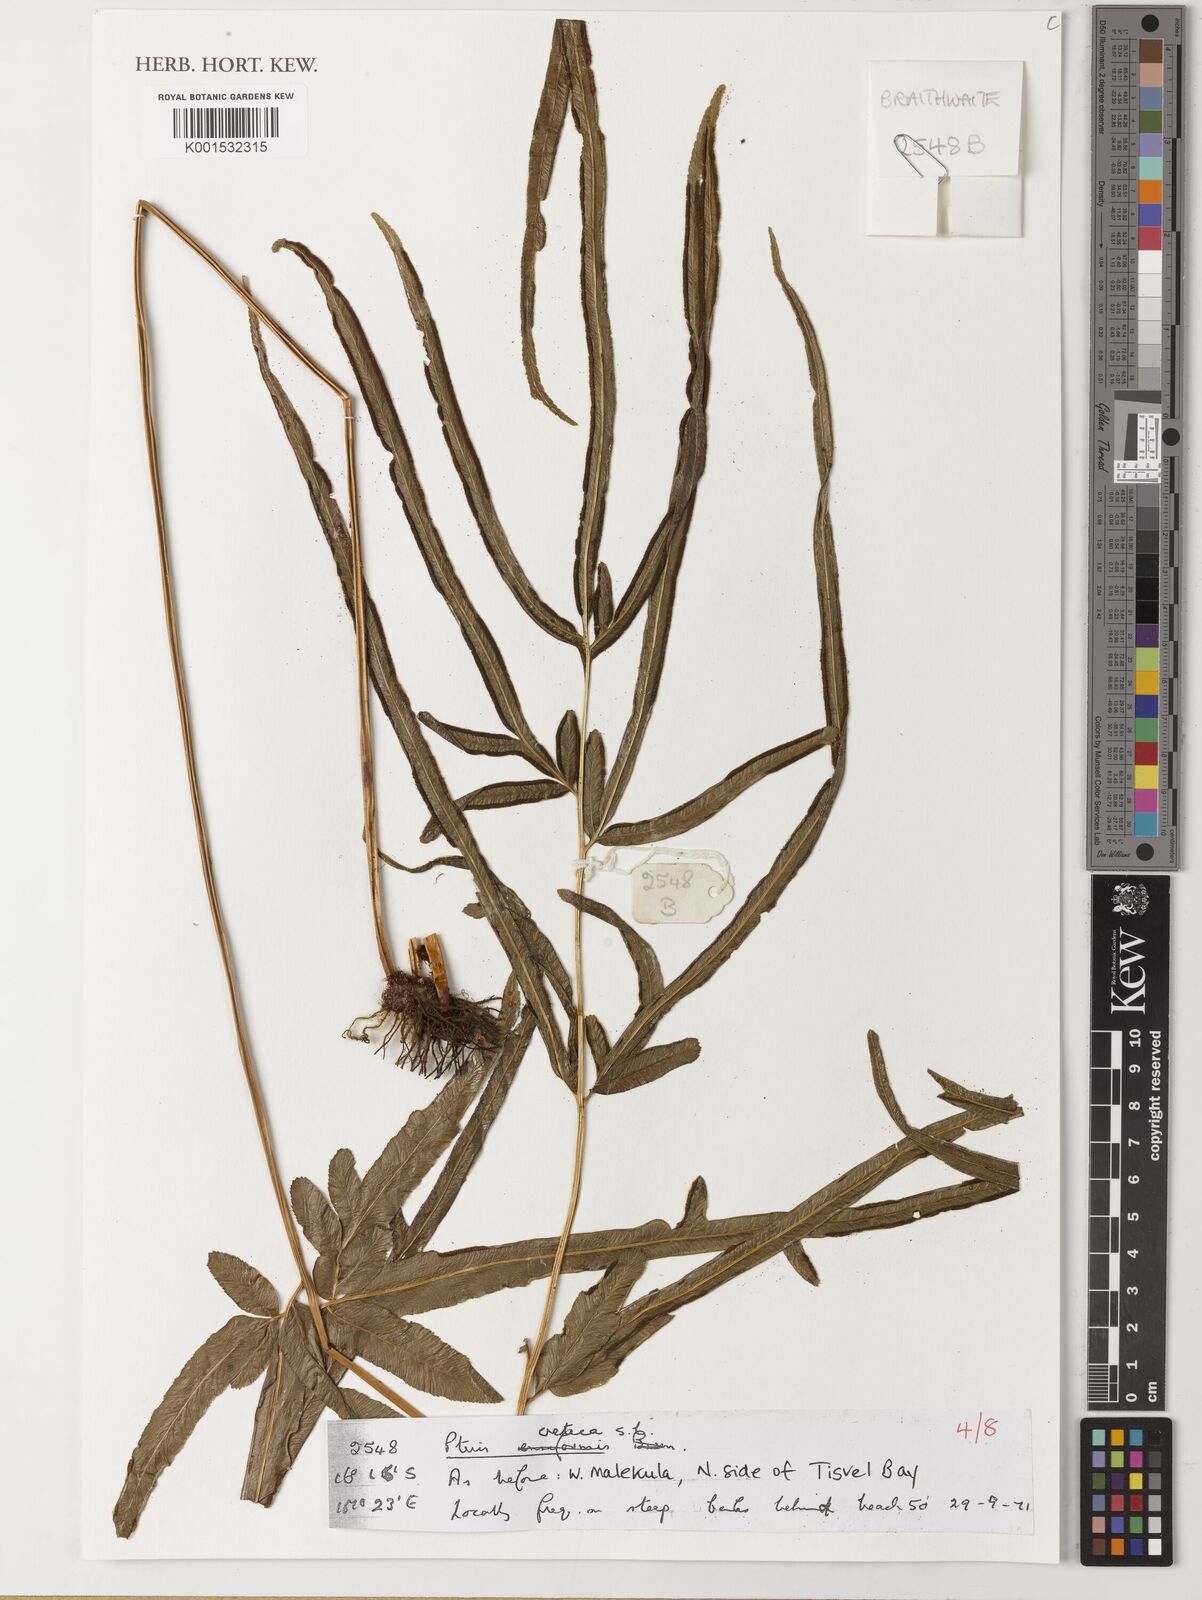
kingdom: Plantae
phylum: Tracheophyta
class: Polypodiopsida
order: Polypodiales
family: Pteridaceae
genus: Pteris
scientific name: Pteris cretica
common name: Ribbon fern
